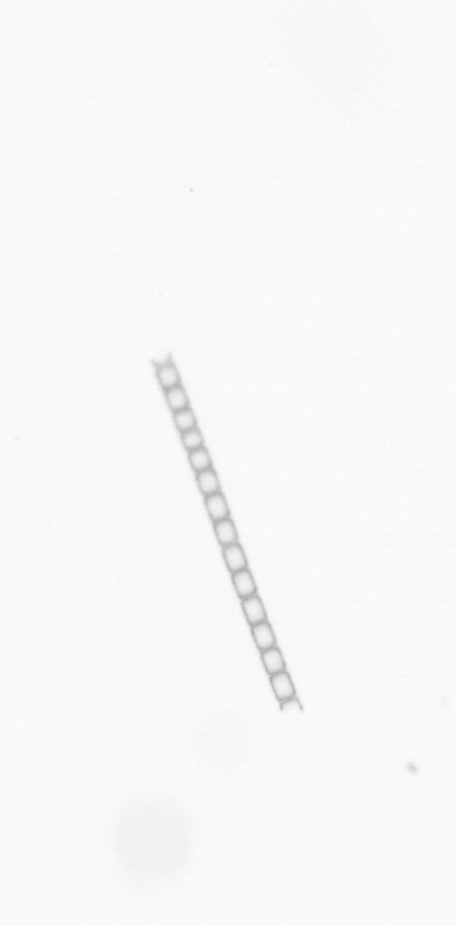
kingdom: Chromista
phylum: Ochrophyta
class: Bacillariophyceae
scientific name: Bacillariophyceae
